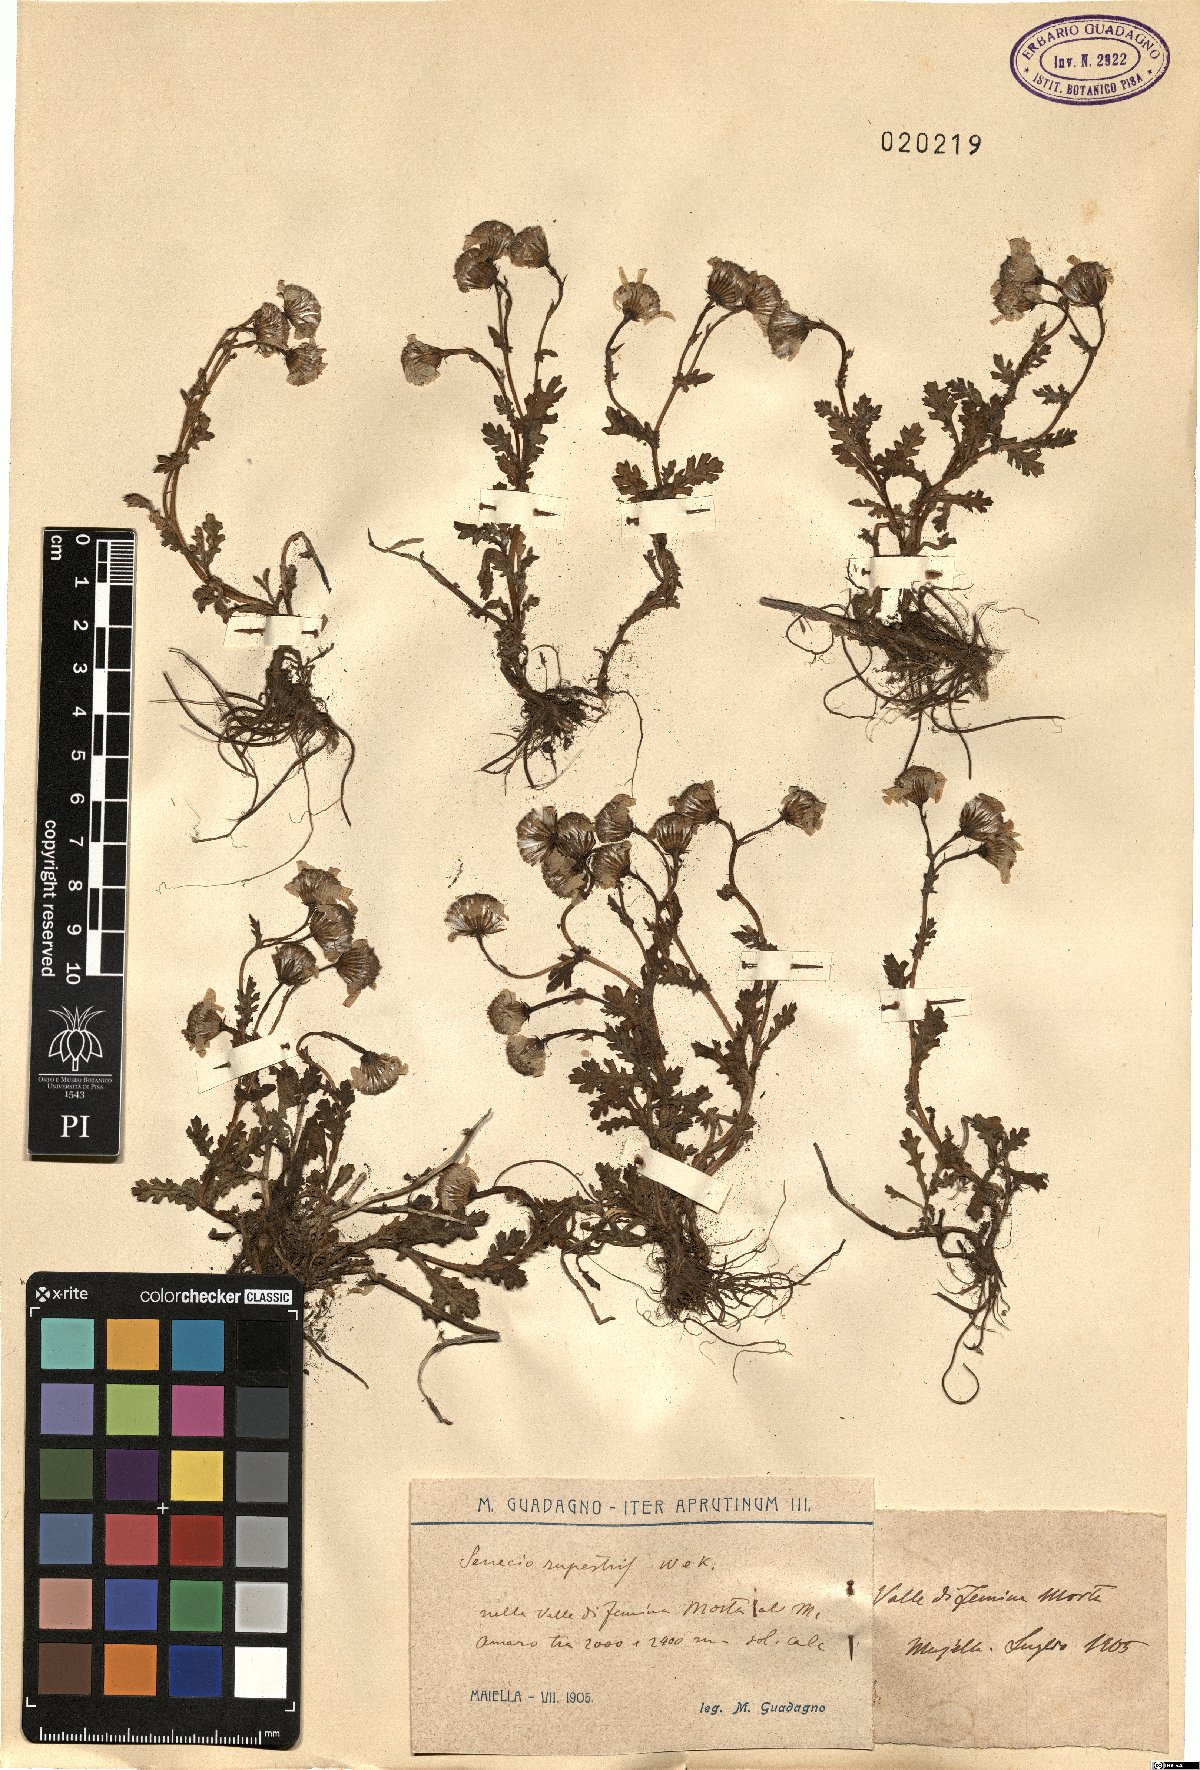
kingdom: Plantae
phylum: Tracheophyta
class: Magnoliopsida
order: Asterales
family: Asteraceae
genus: Senecio
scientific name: Senecio rupestris
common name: Rock ragwort
